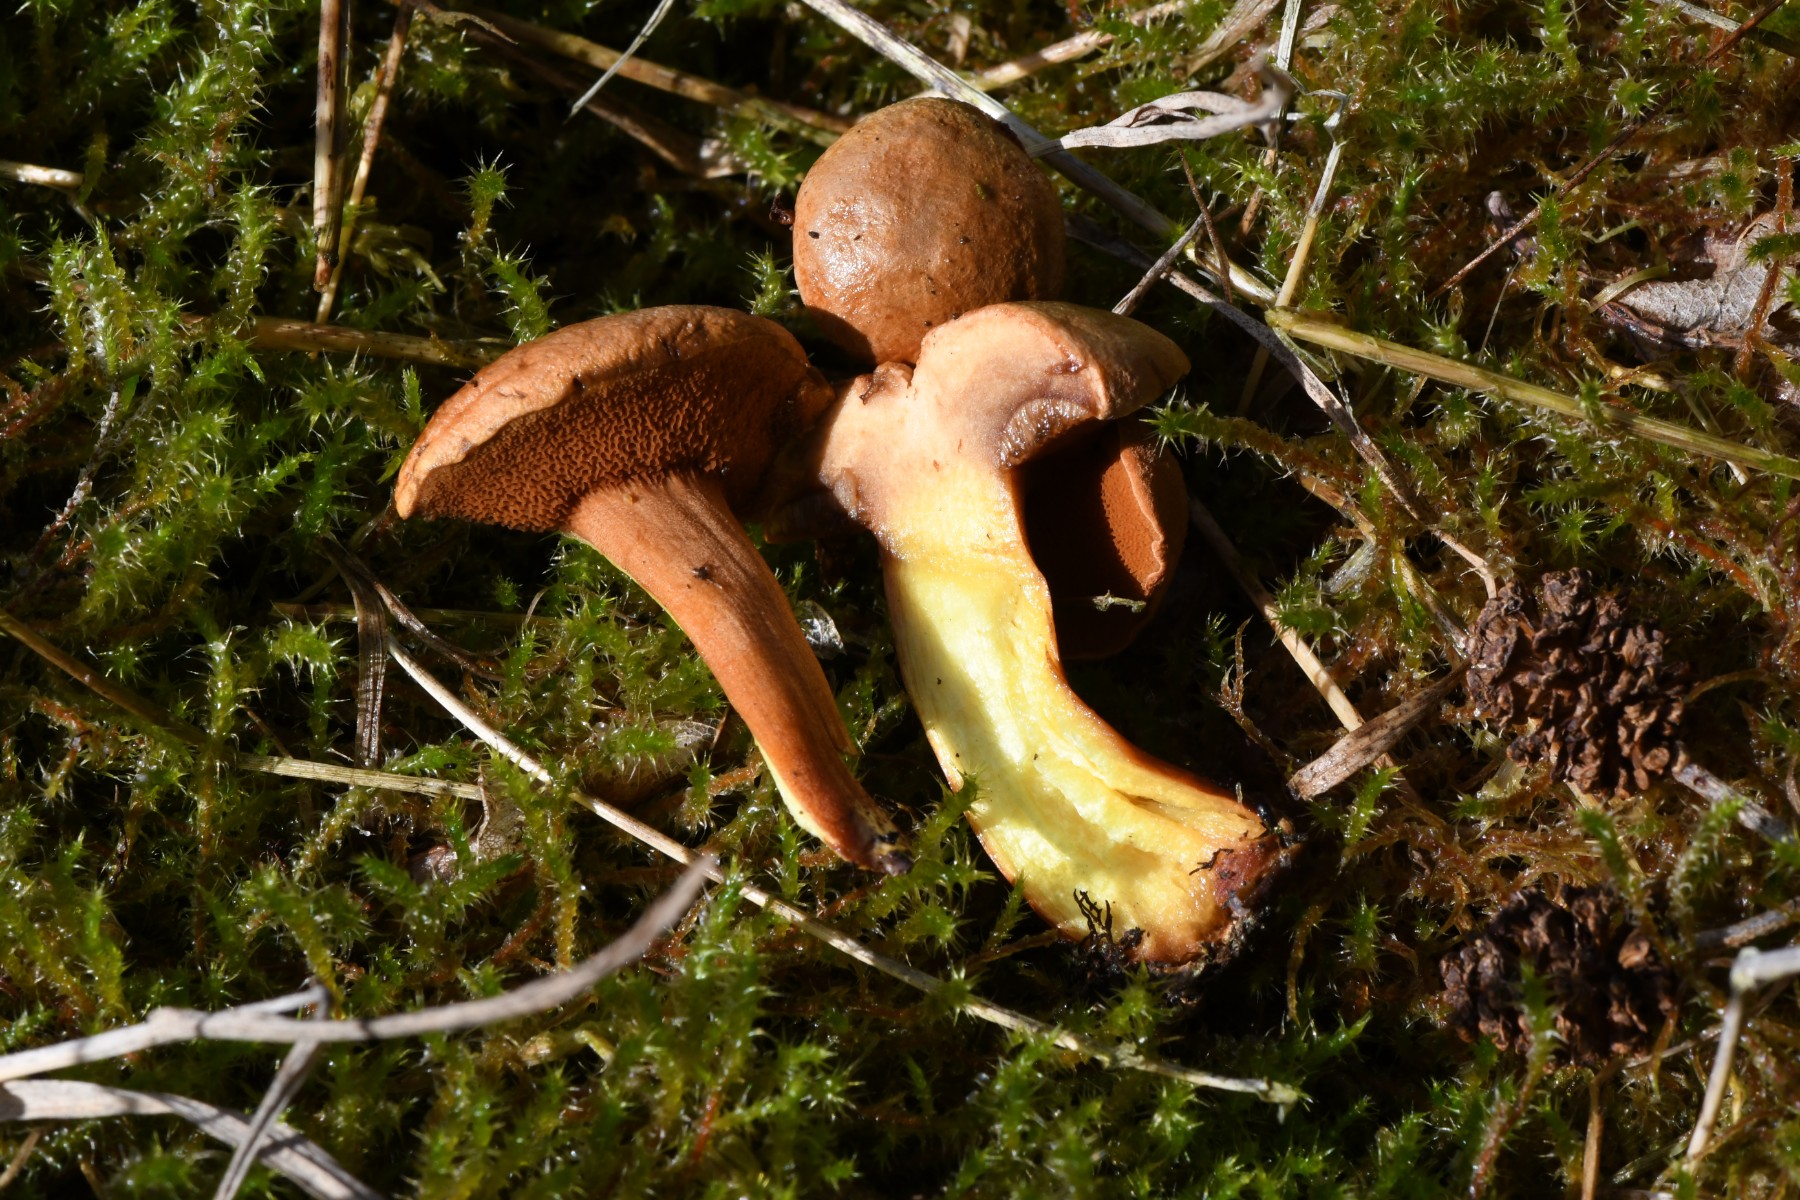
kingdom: Fungi
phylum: Basidiomycota
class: Agaricomycetes
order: Boletales
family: Boletaceae
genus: Chalciporus
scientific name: Chalciporus piperatus
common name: peberrørhat
